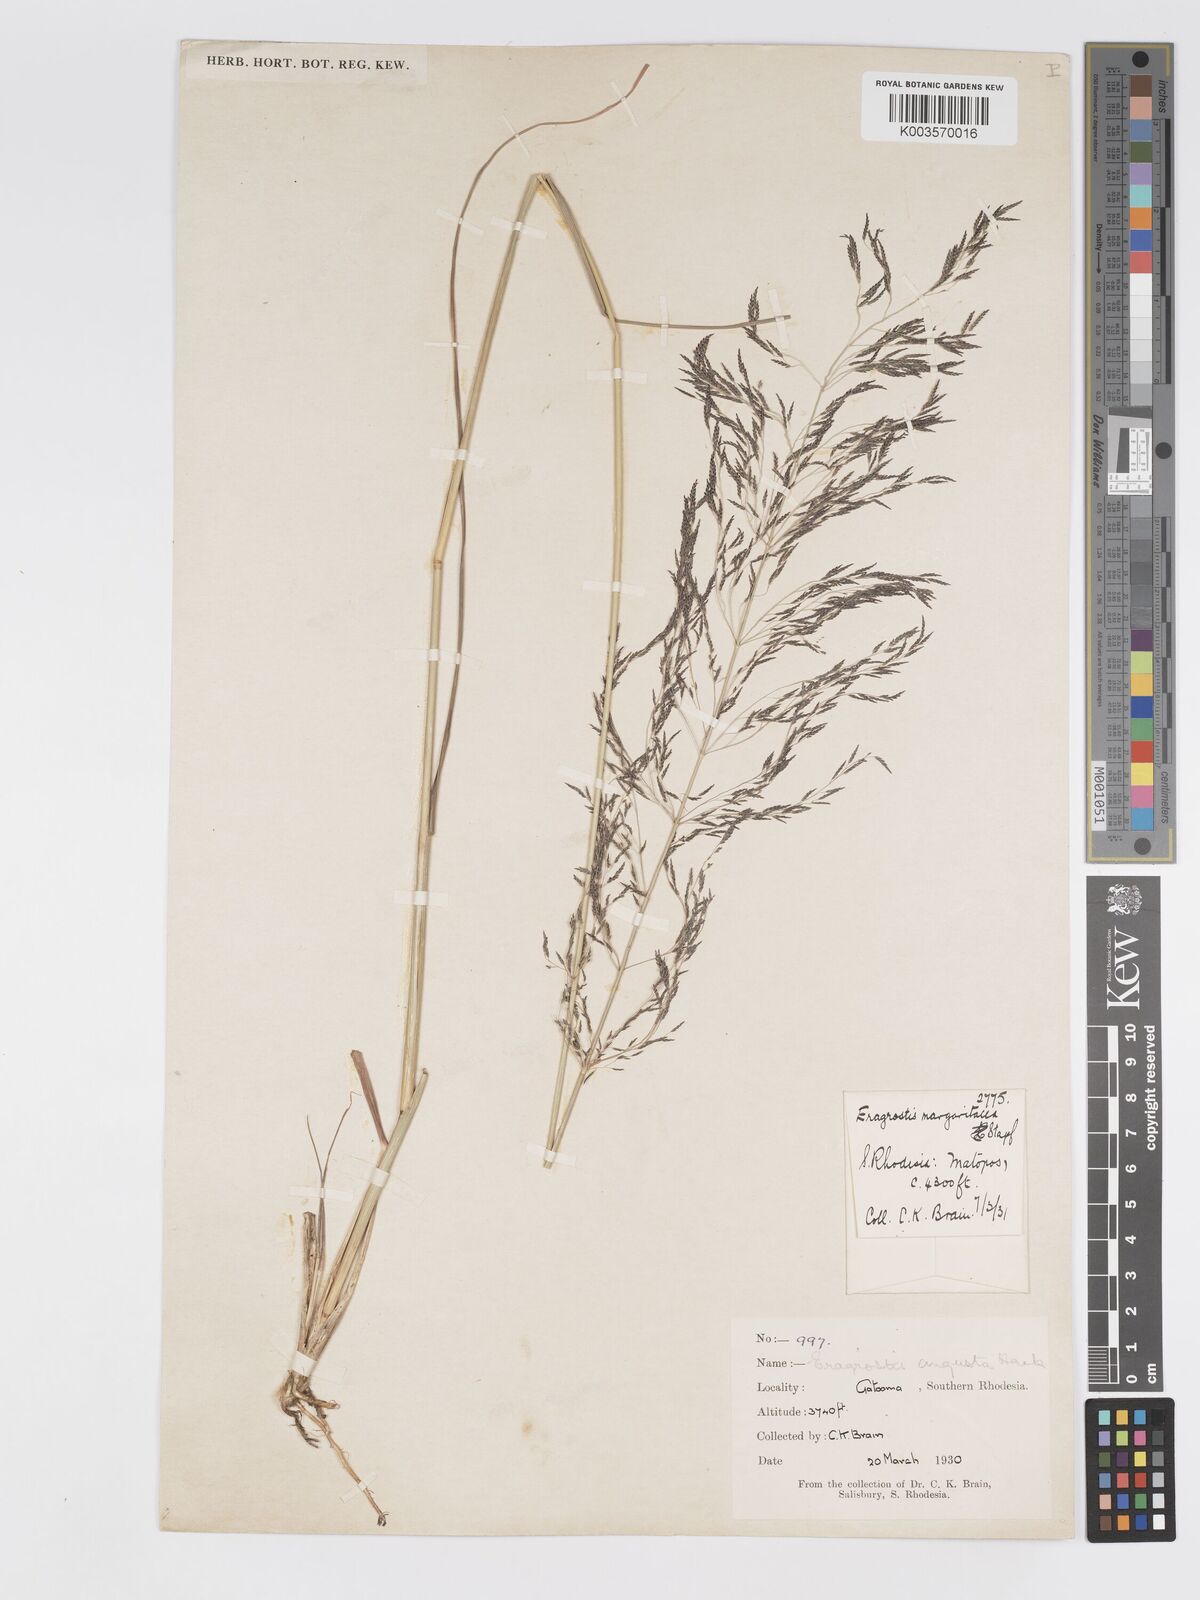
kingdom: Plantae
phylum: Tracheophyta
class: Liliopsida
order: Poales
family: Poaceae
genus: Eragrostis
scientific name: Eragrostis rotifer
